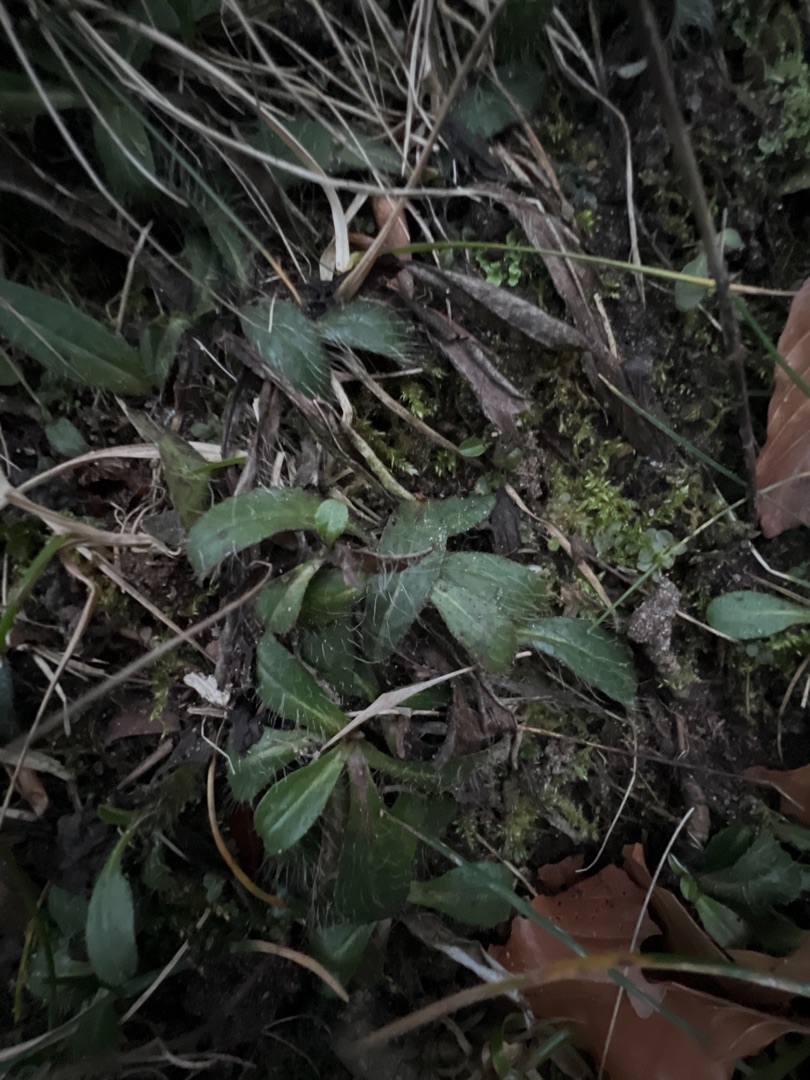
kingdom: Plantae
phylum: Tracheophyta
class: Magnoliopsida
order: Asterales
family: Asteraceae
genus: Pilosella
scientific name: Pilosella officinarum
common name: Håret høgeurt
